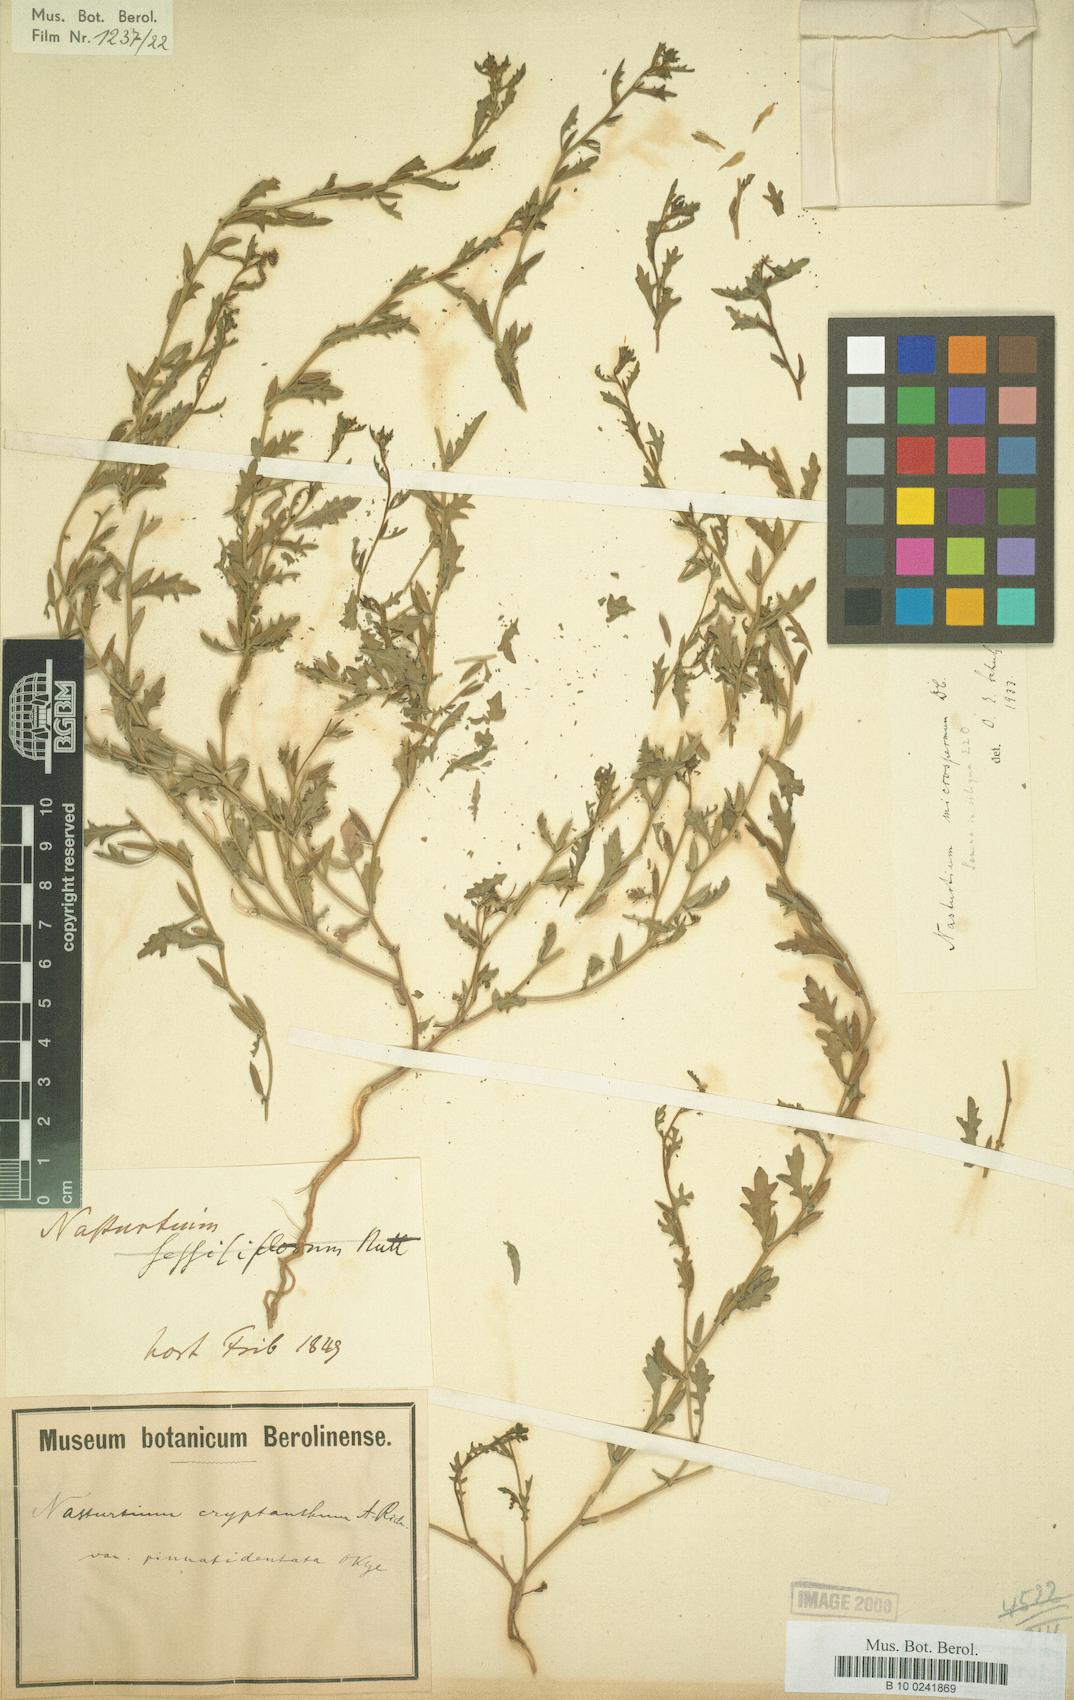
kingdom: Plantae
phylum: Tracheophyta
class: Magnoliopsida
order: Brassicales
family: Brassicaceae
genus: Rorippa
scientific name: Rorippa cantoniensis
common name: Chinese yellowcress
